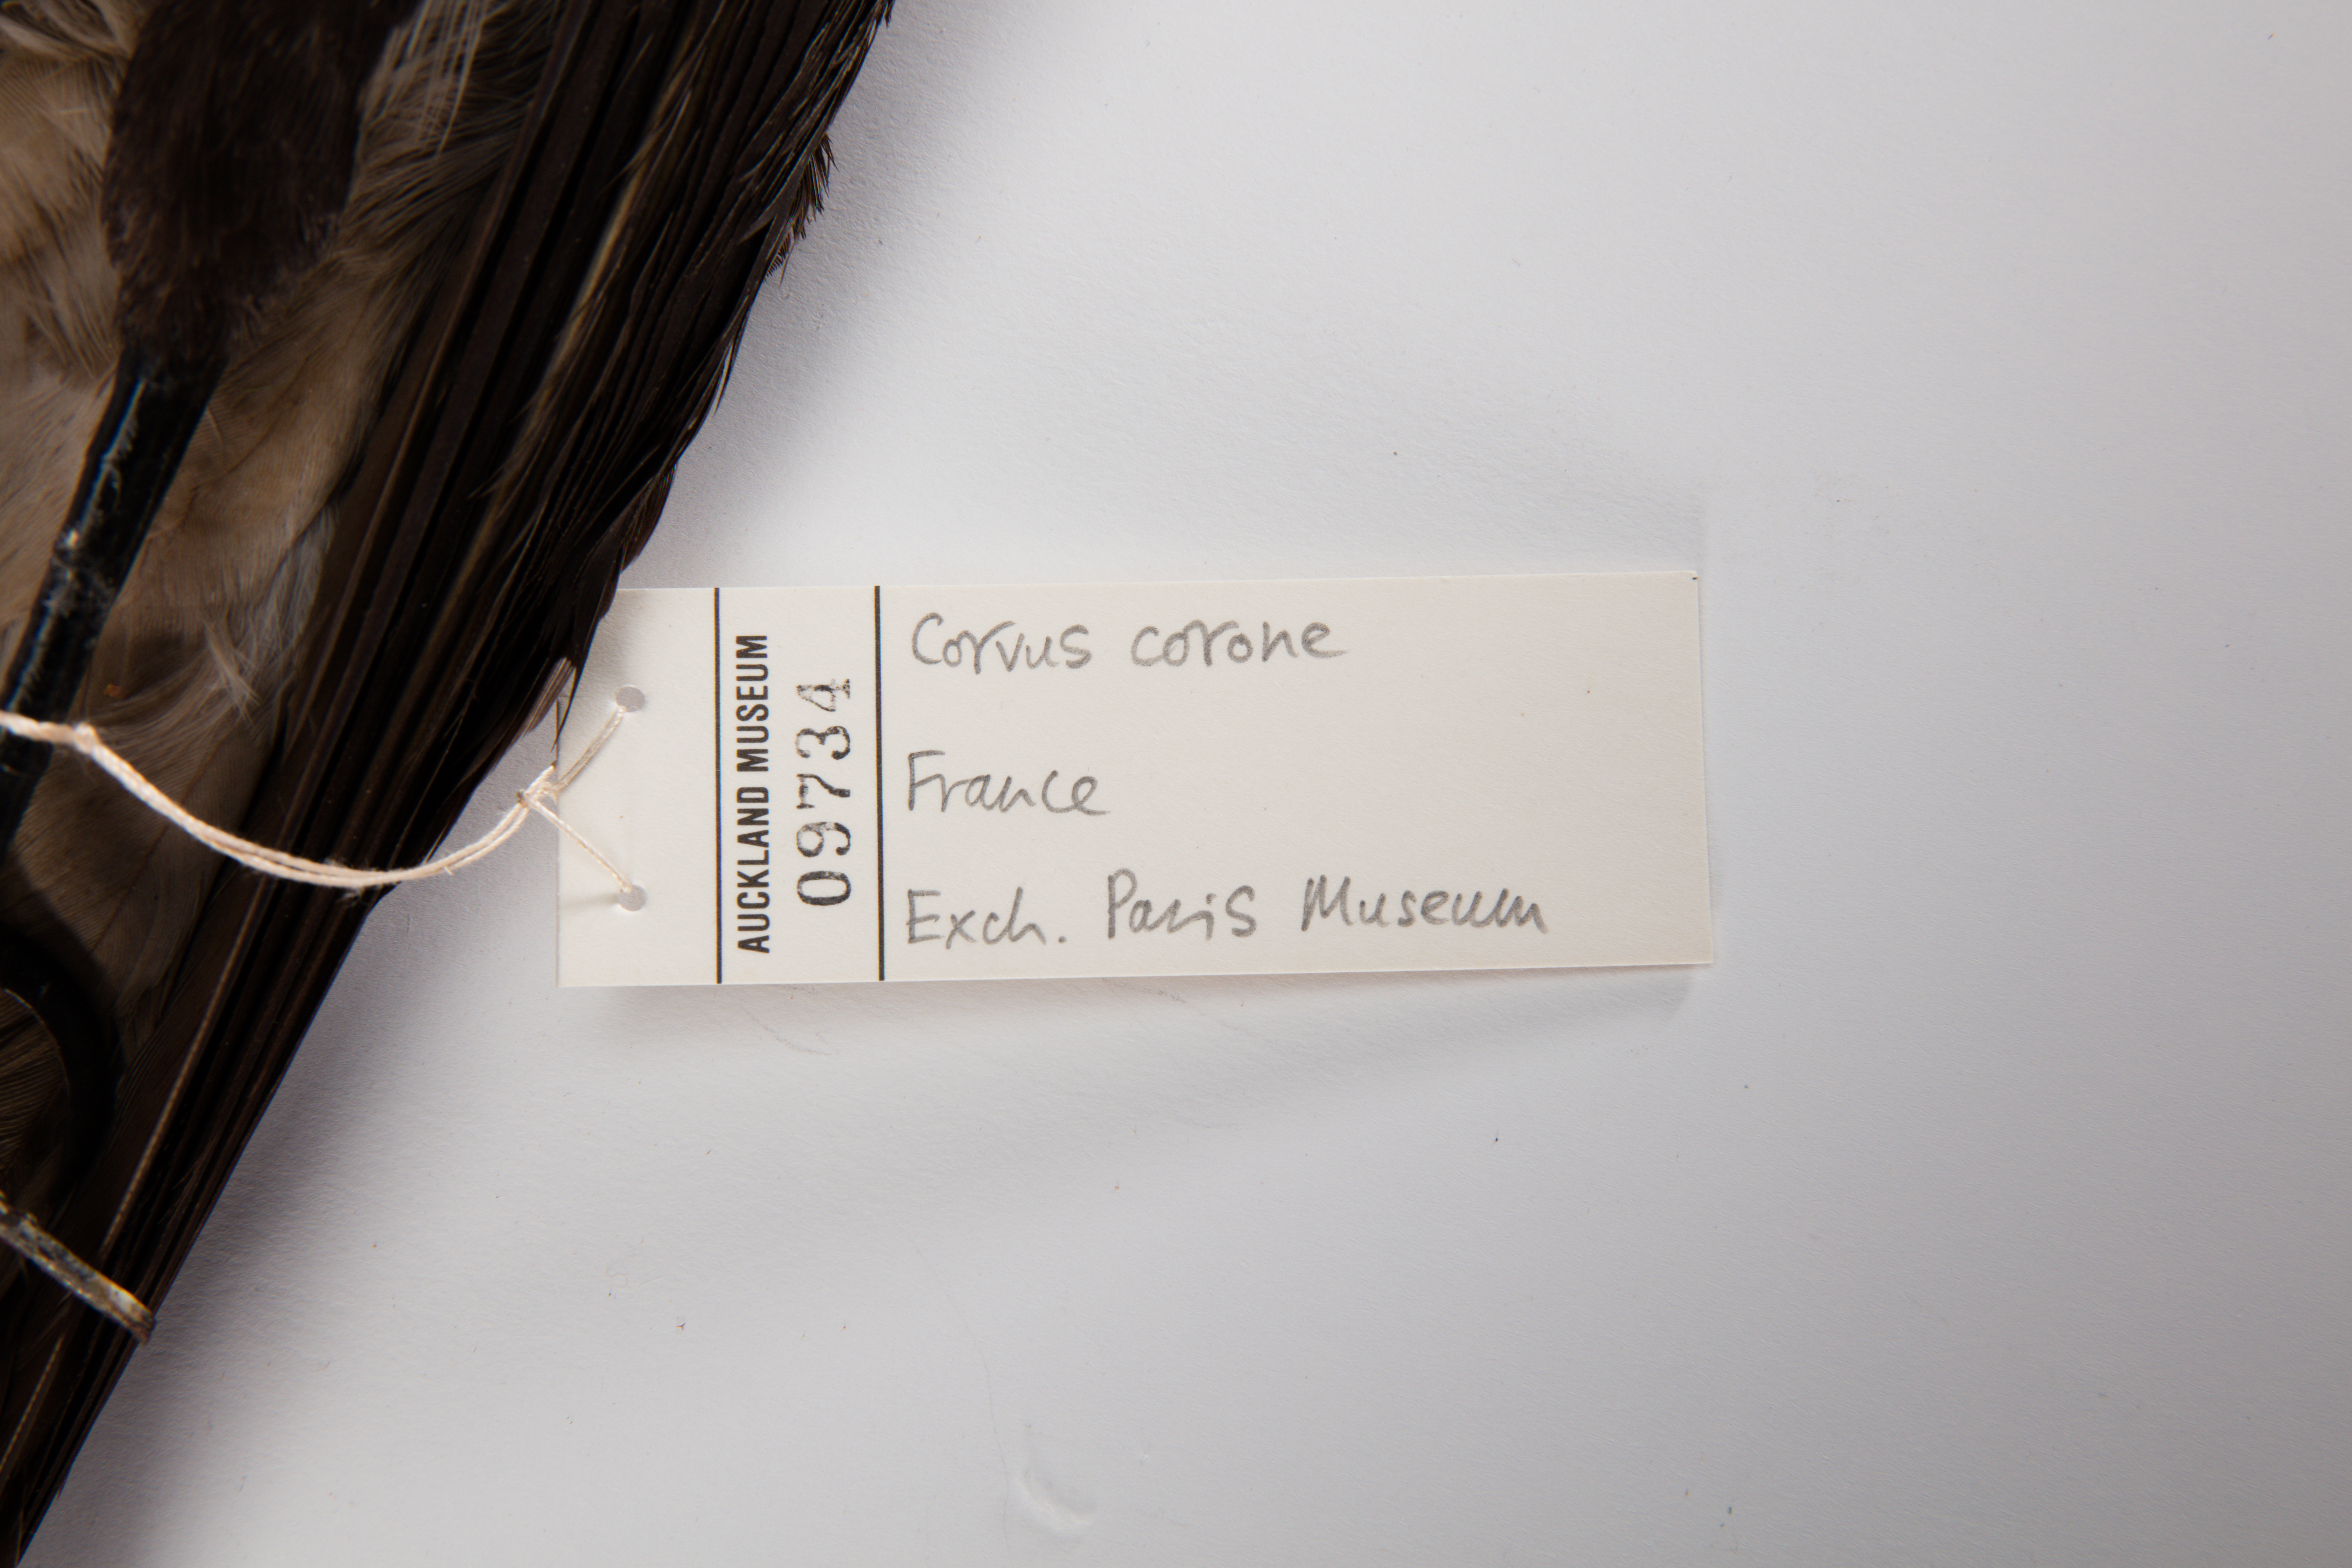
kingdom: Animalia
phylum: Chordata
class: Aves
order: Passeriformes
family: Corvidae
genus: Corvus
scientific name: Corvus cornix
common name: Hooded crow
